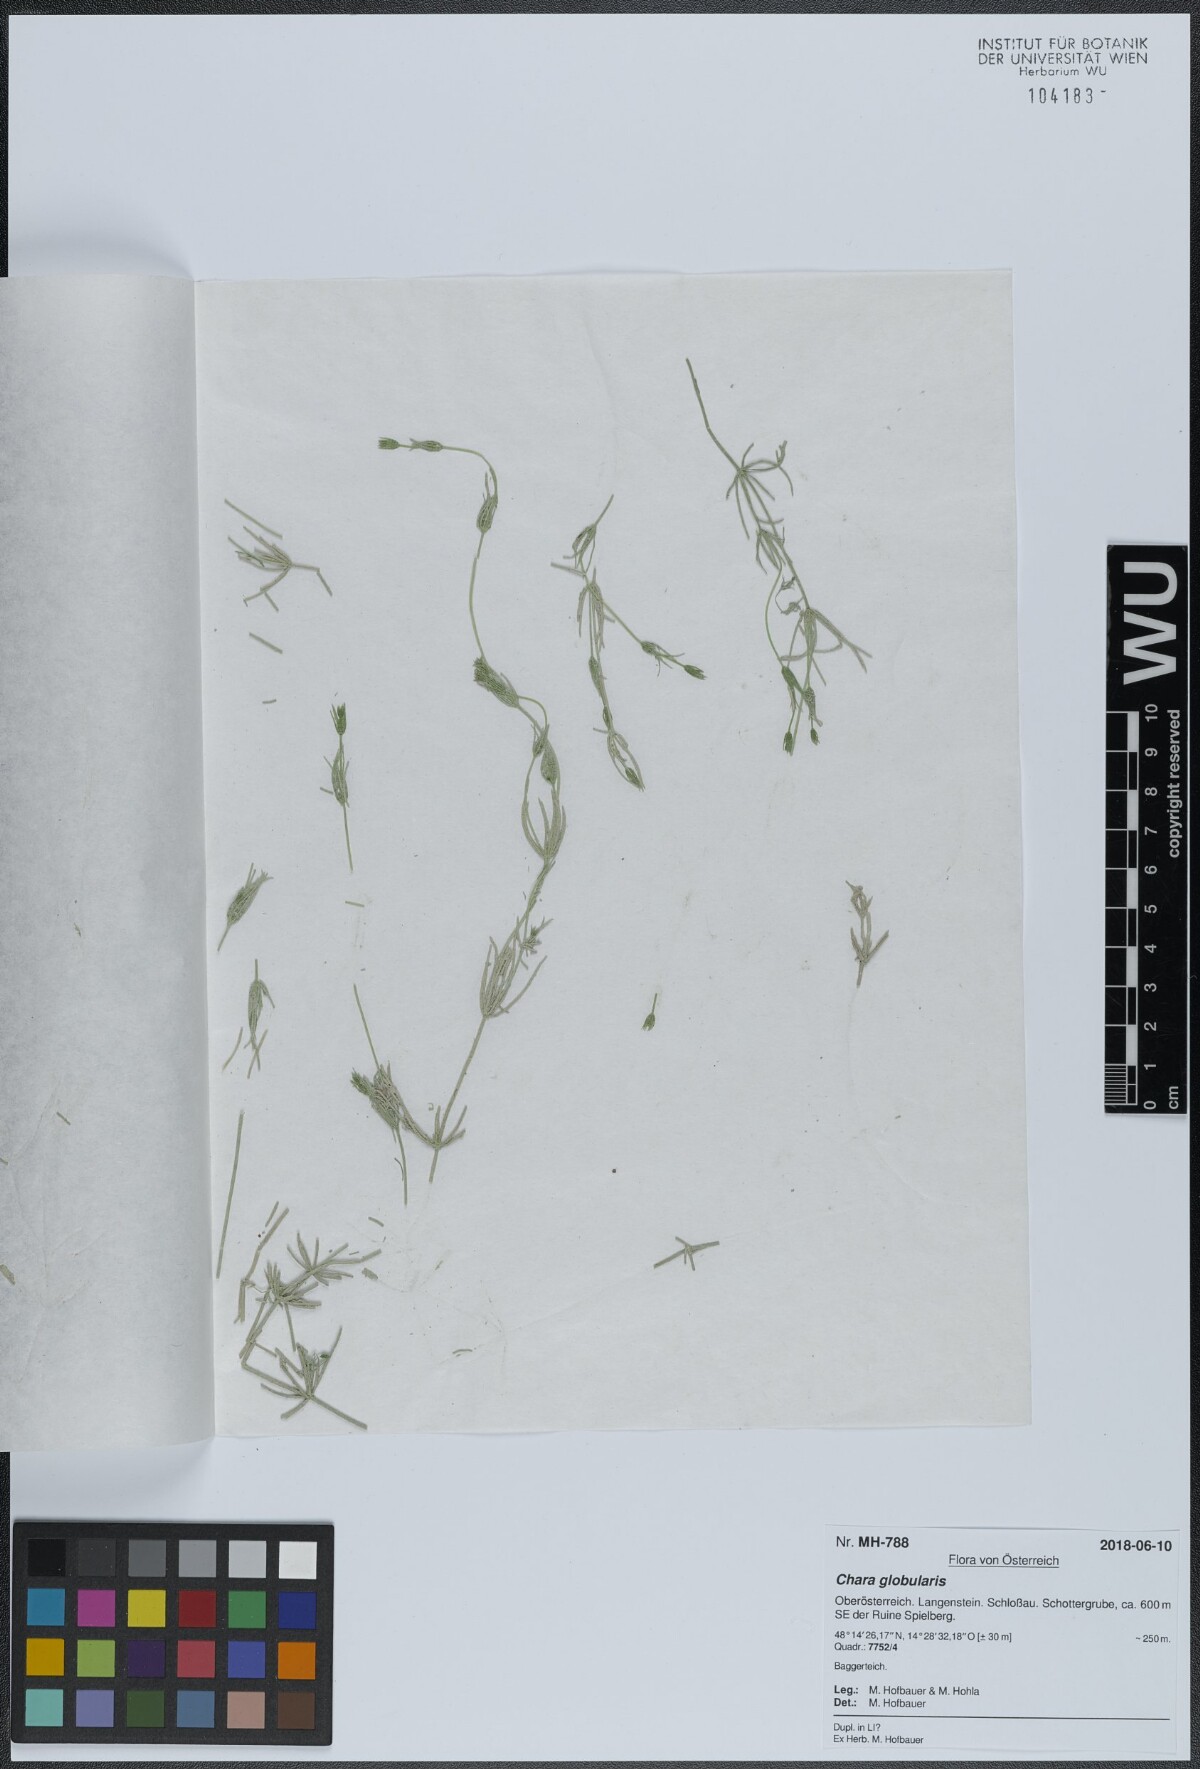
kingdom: Plantae
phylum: Charophyta
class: Charophyceae
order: Charales
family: Characeae
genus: Chara
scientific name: Chara globularis
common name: Fragile stonewort
